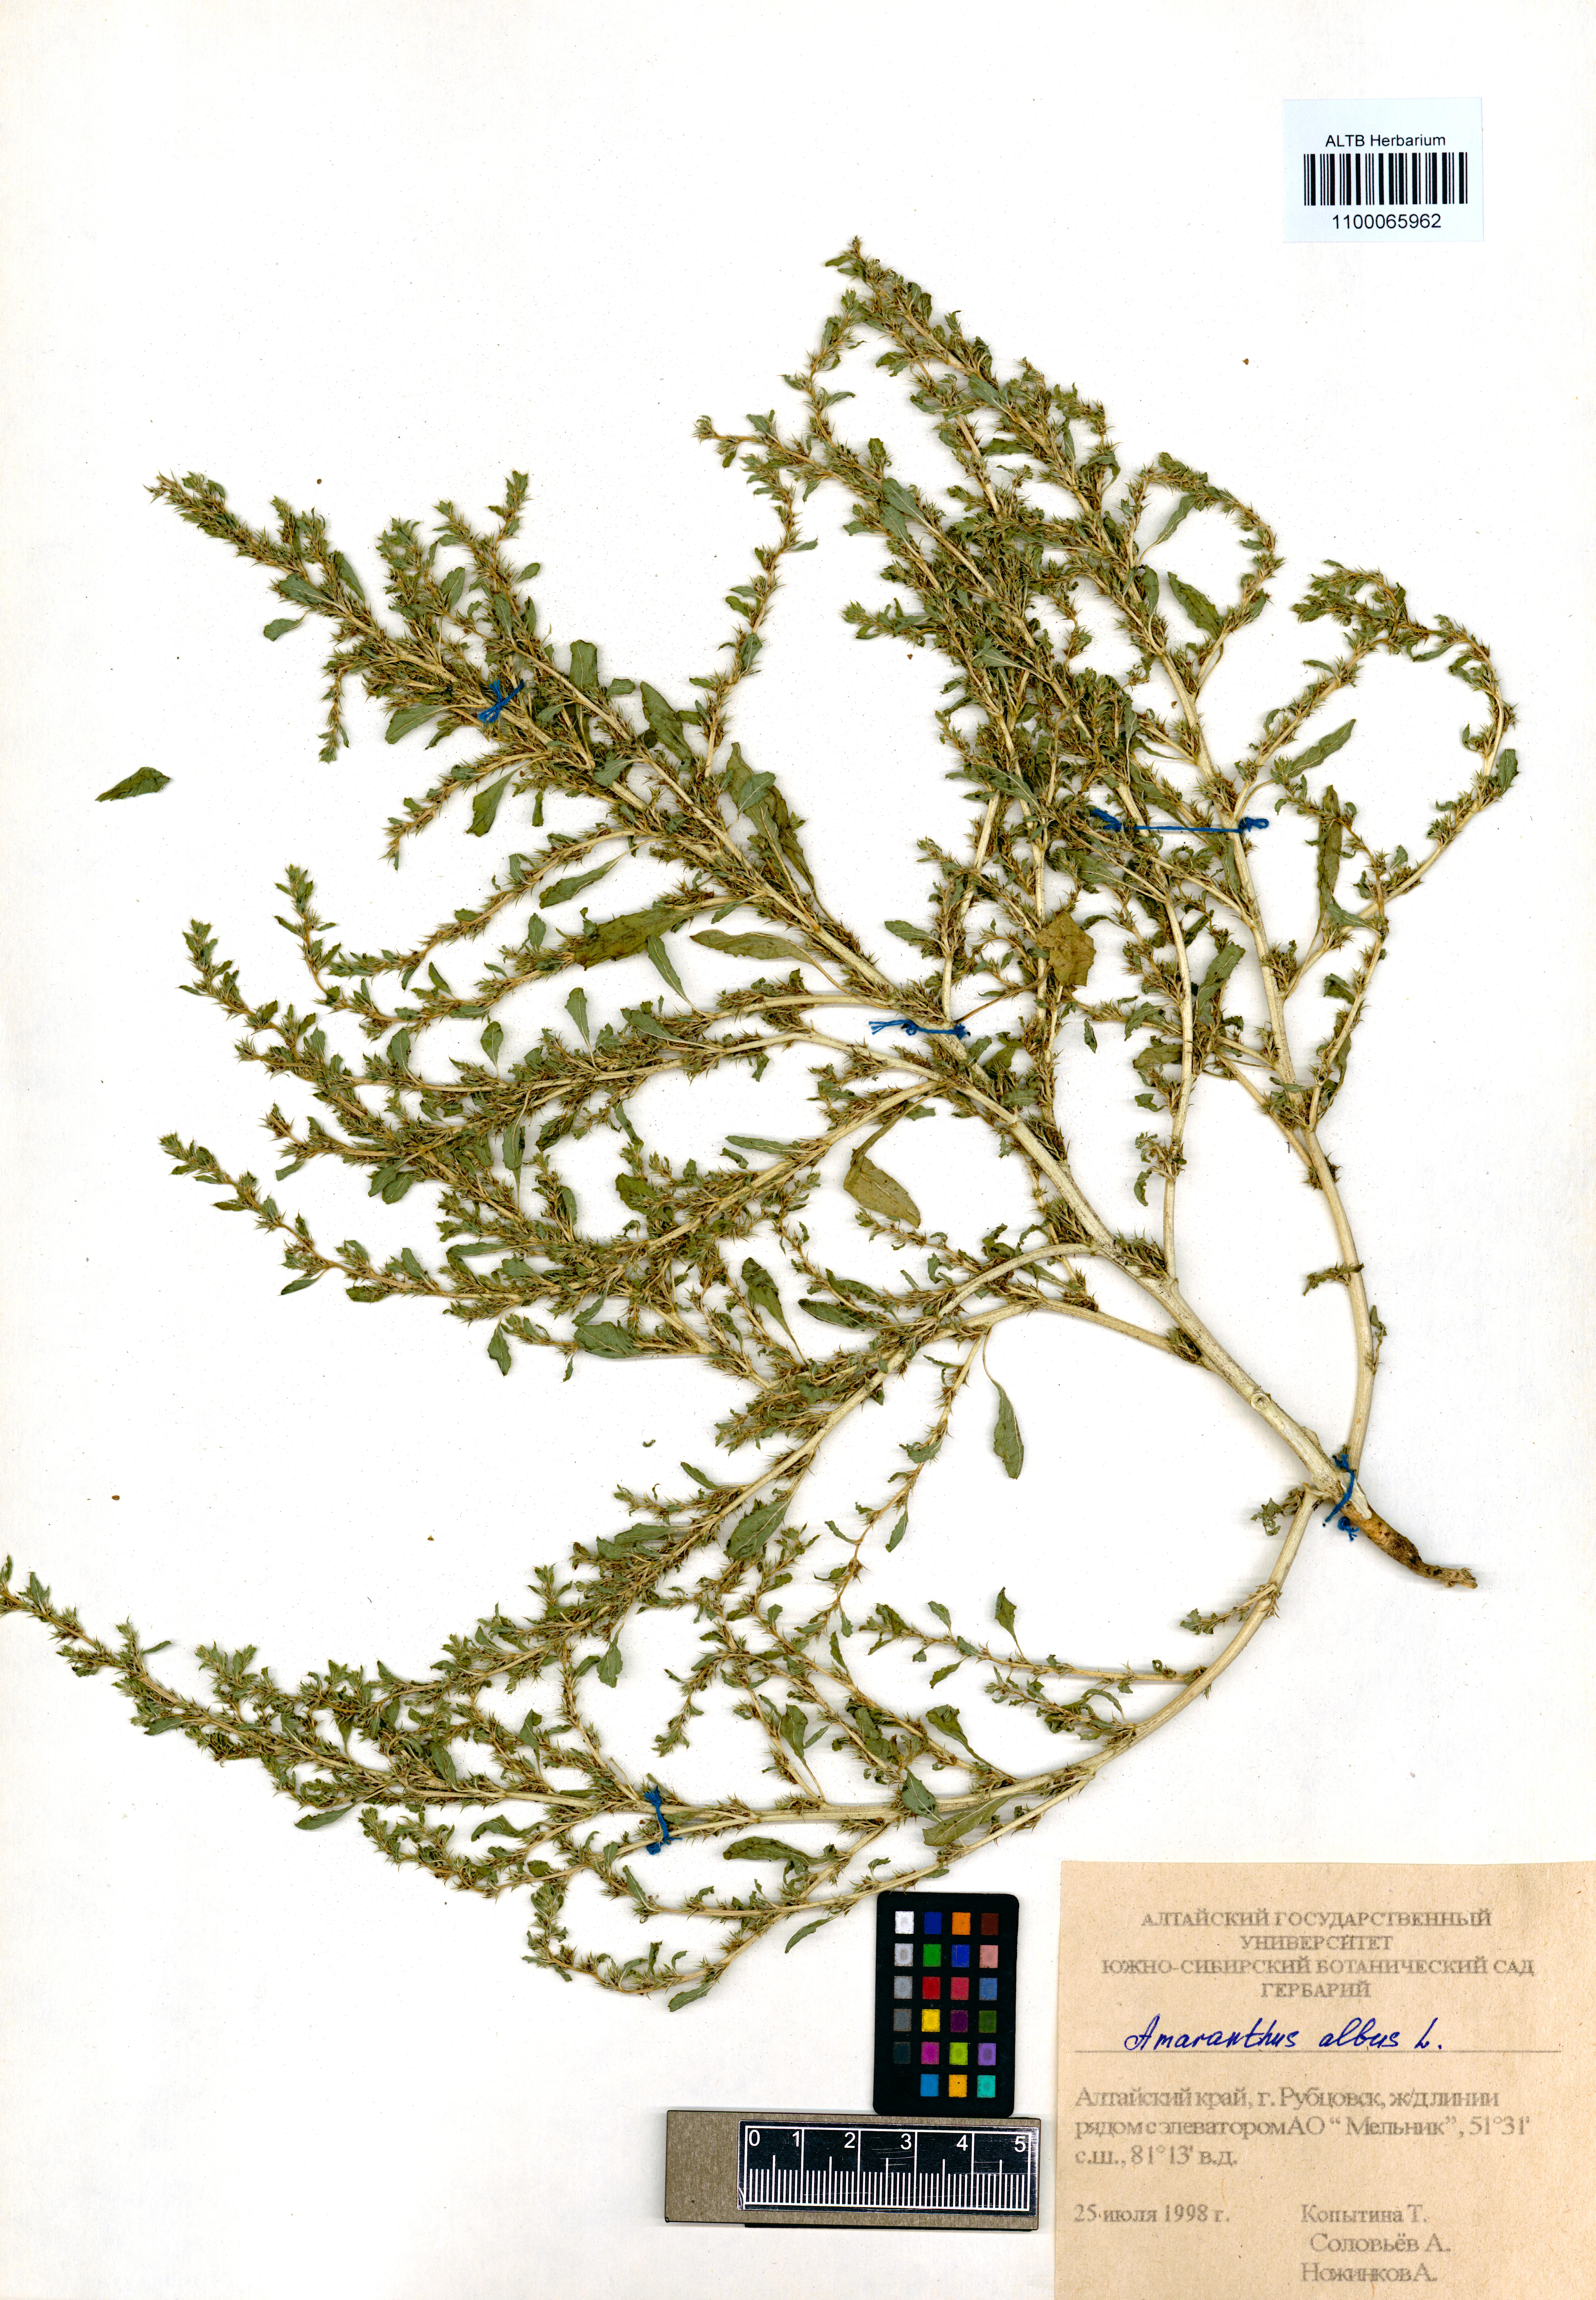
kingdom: Plantae
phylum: Tracheophyta
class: Magnoliopsida
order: Caryophyllales
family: Amaranthaceae
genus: Amaranthus
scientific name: Amaranthus albus
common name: White pigweed
